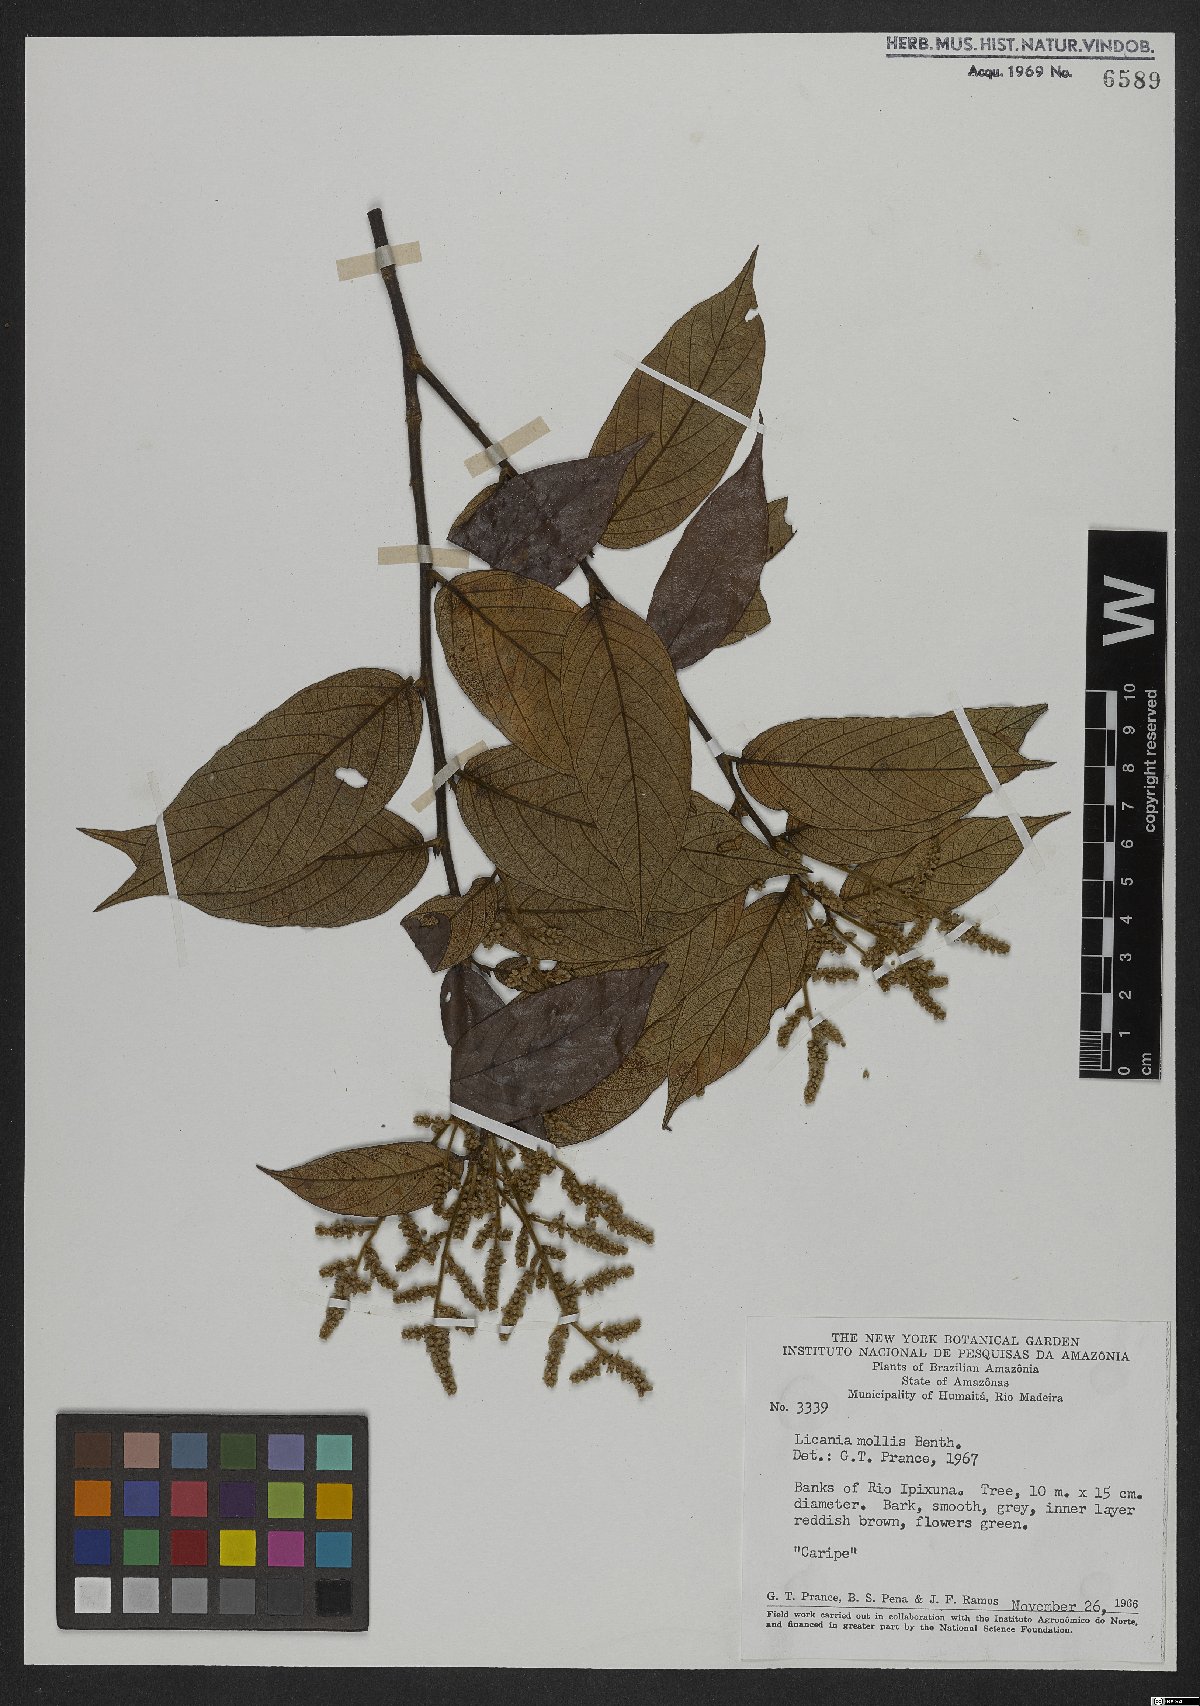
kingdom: Plantae
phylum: Tracheophyta
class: Magnoliopsida
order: Malpighiales
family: Chrysobalanaceae
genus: Licania
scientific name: Licania mollis
